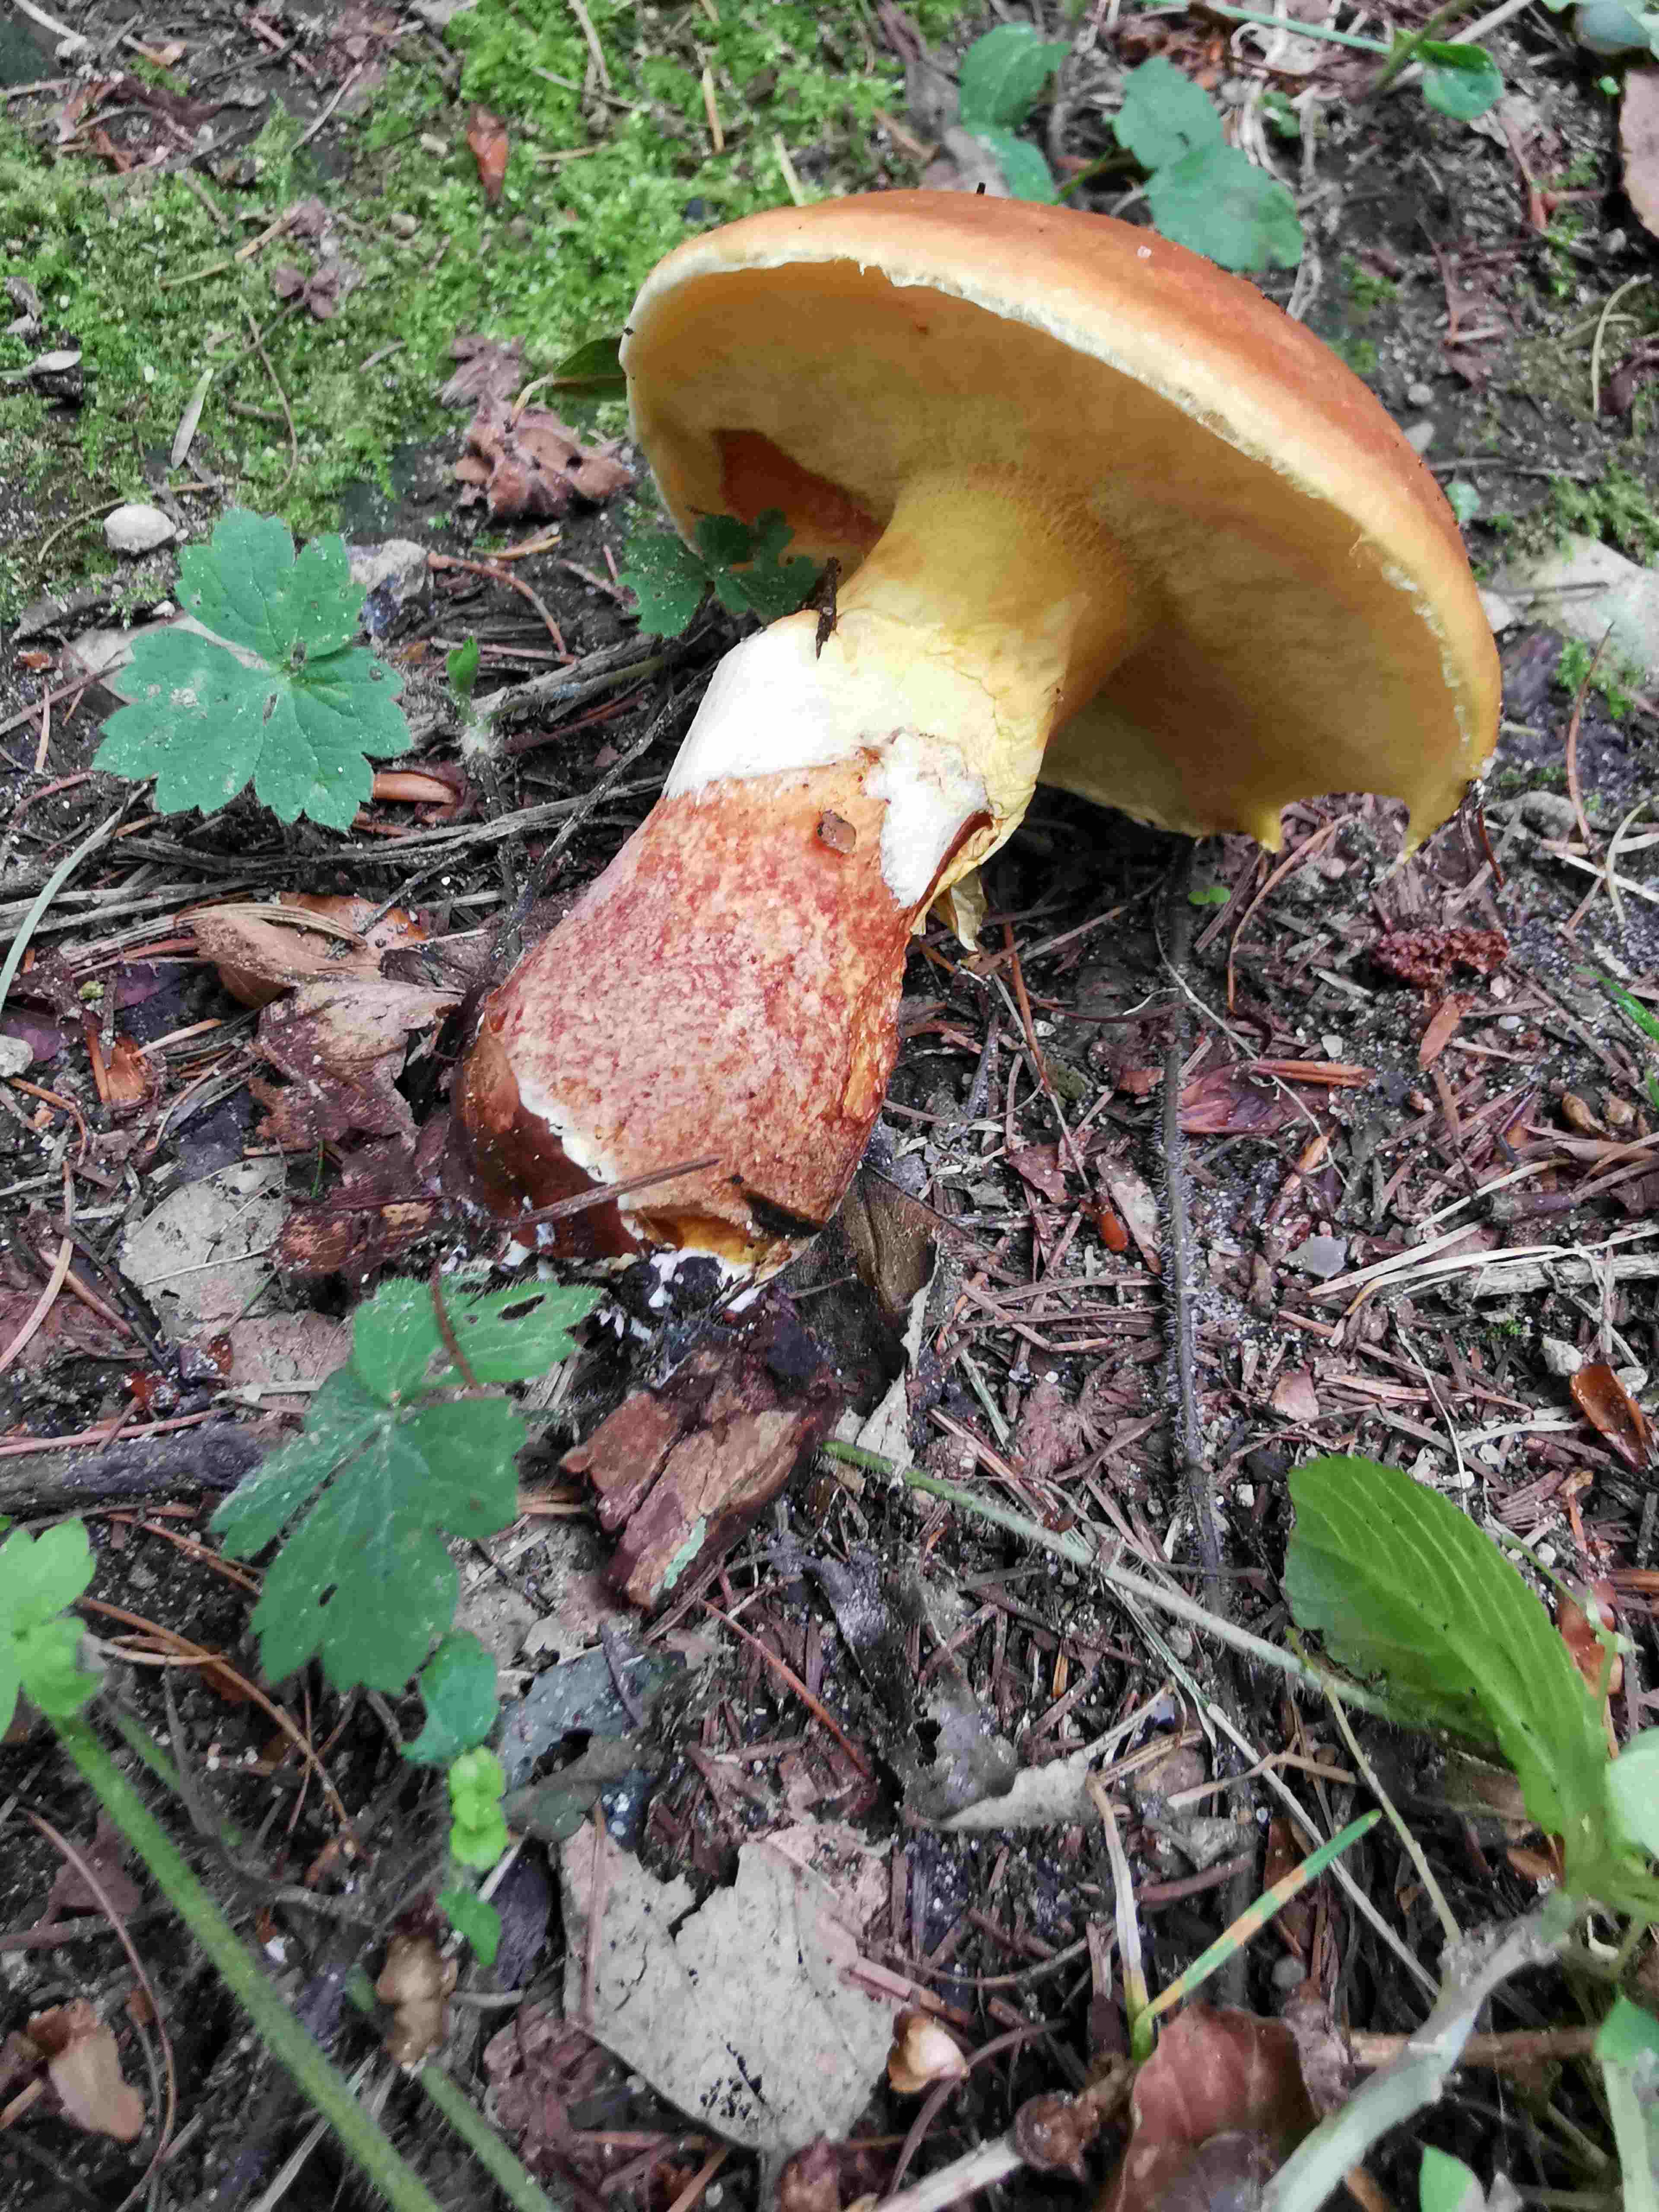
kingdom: Fungi
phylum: Basidiomycota
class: Agaricomycetes
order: Boletales
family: Suillaceae
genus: Suillus
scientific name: Suillus grevillei
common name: lærke-slimrørhat
